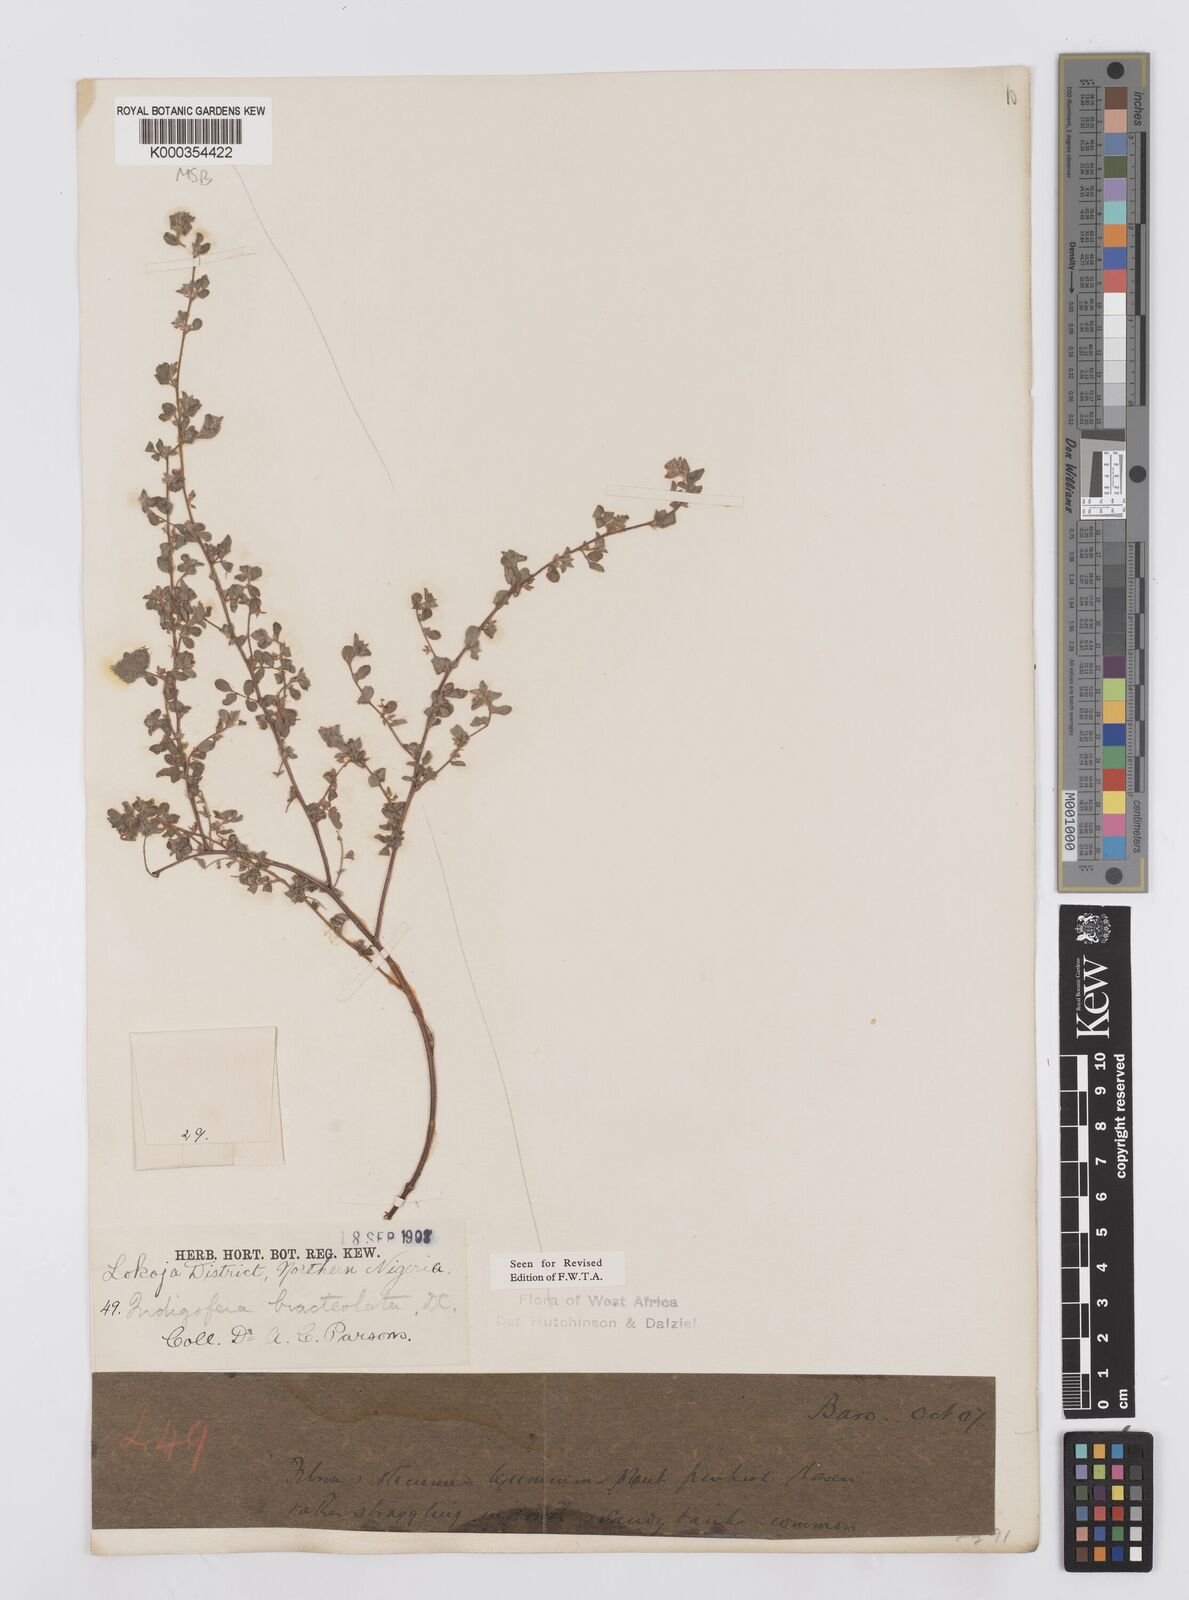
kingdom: Plantae
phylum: Tracheophyta
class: Magnoliopsida
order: Fabales
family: Fabaceae
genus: Indigofera
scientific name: Indigofera bracteolata
